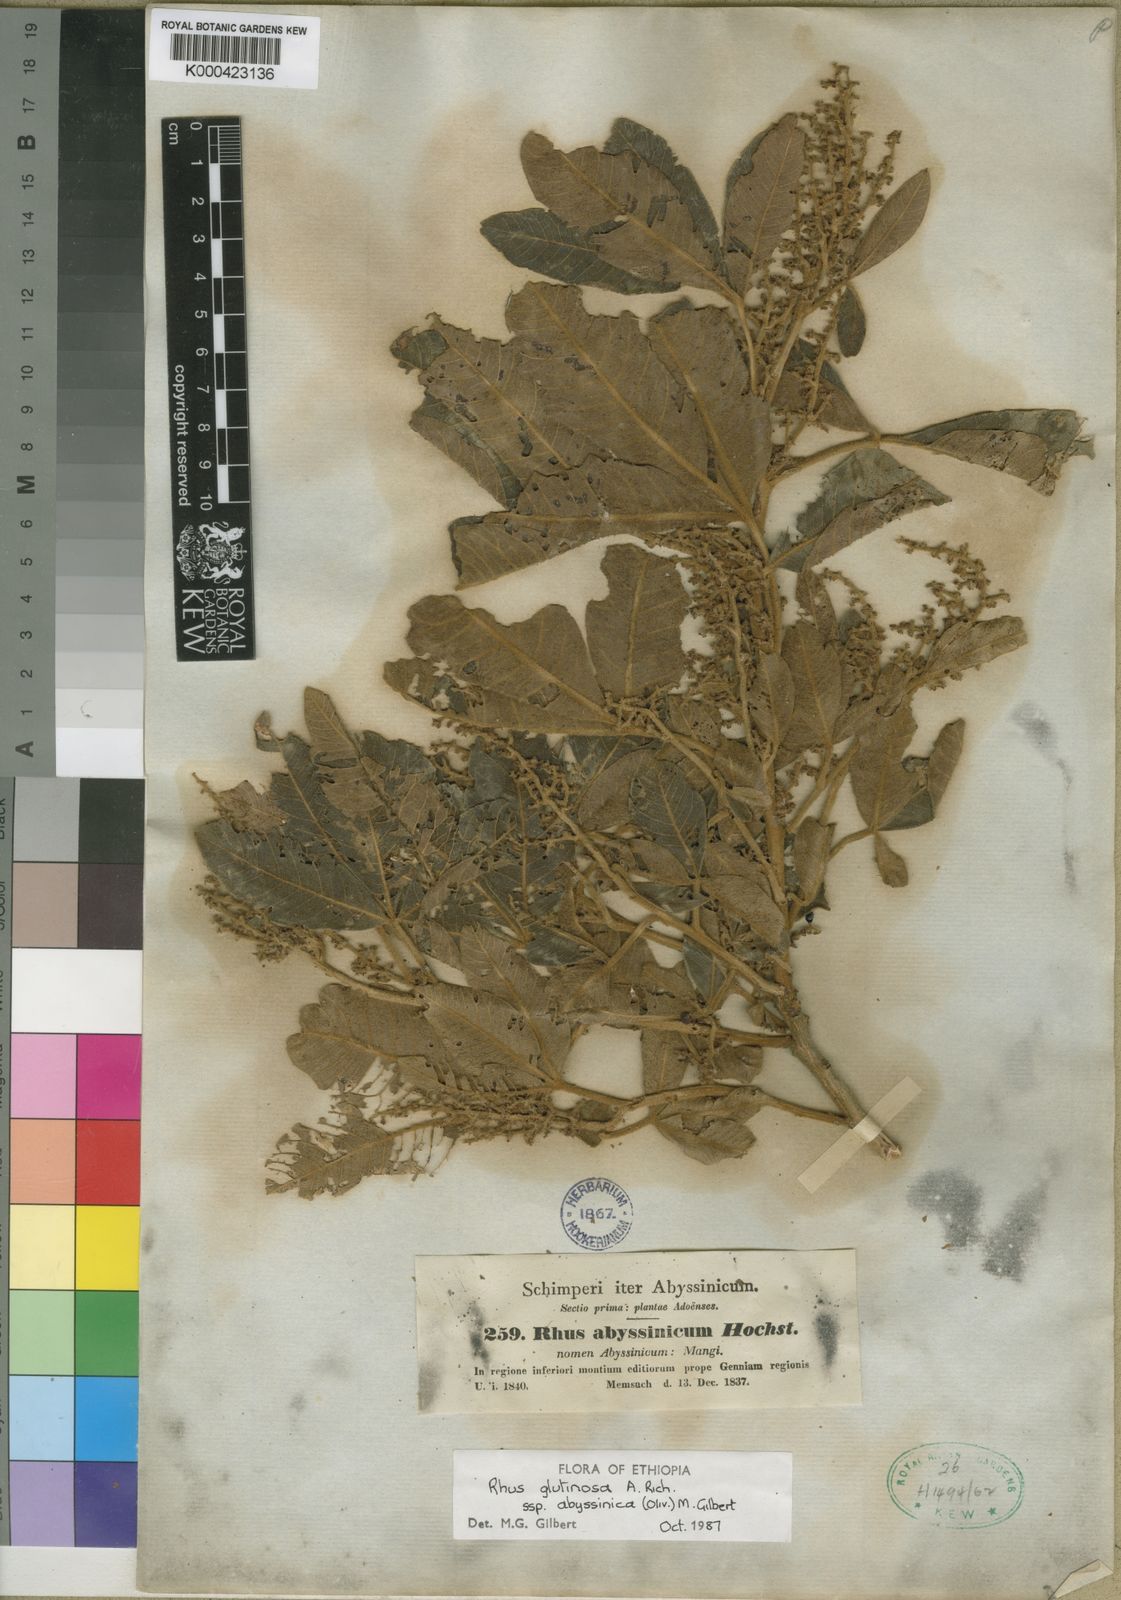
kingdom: Plantae
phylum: Tracheophyta
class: Magnoliopsida
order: Sapindales
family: Anacardiaceae
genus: Searsia
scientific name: Searsia glutinosa
